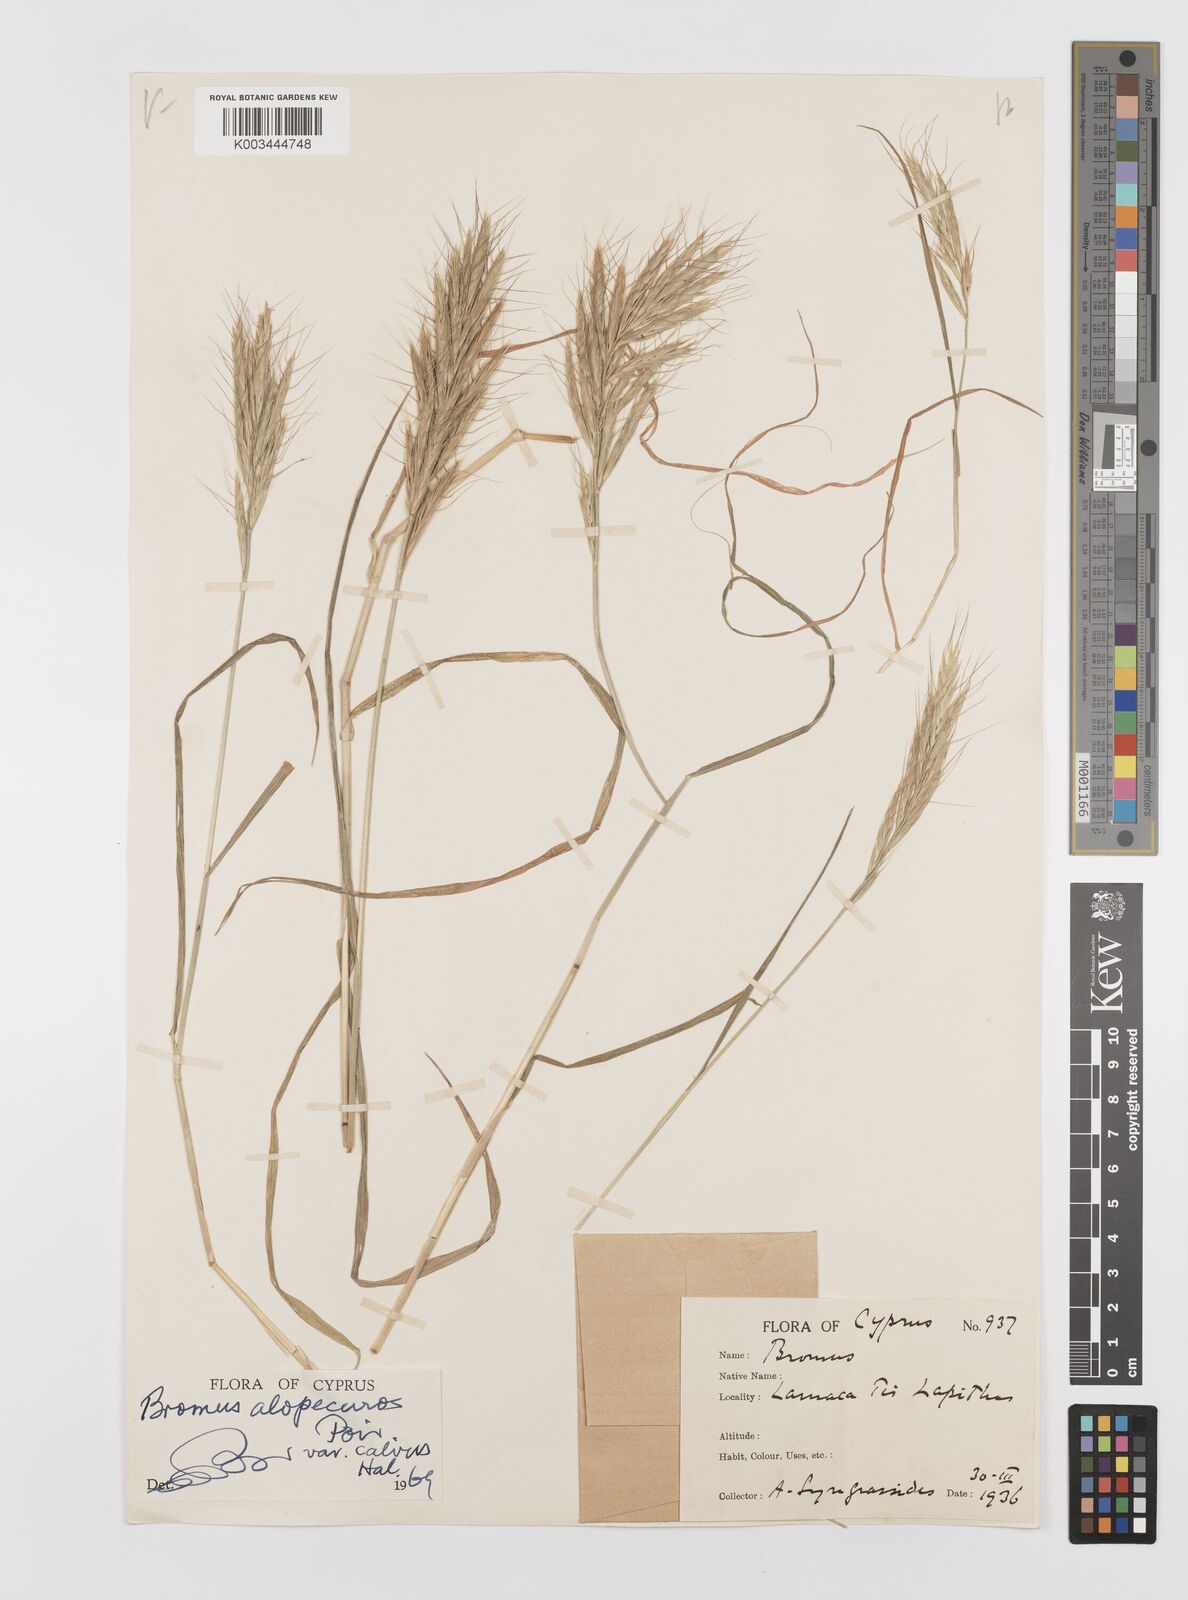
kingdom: Plantae
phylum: Tracheophyta
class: Liliopsida
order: Poales
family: Poaceae
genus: Bromus
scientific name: Bromus alopecuros
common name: Weedy brome
